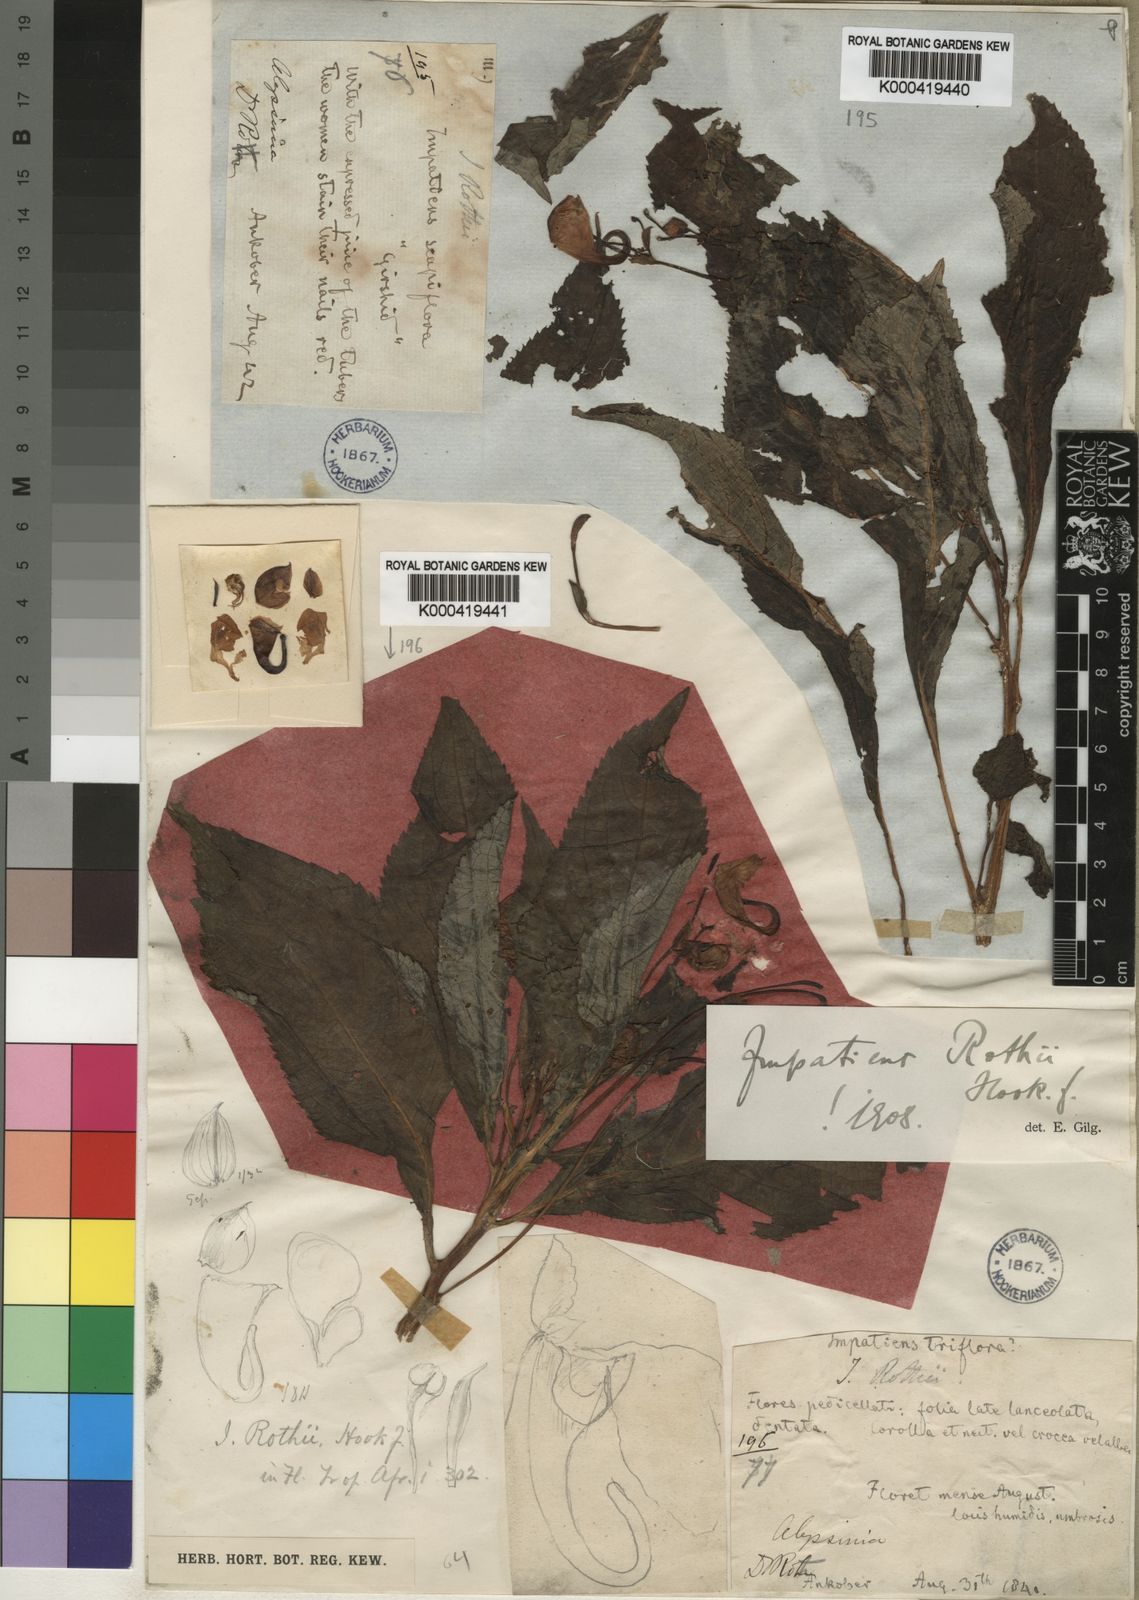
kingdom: Plantae
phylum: Tracheophyta
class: Magnoliopsida
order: Ericales
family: Balsaminaceae
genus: Impatiens
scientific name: Impatiens rothii
